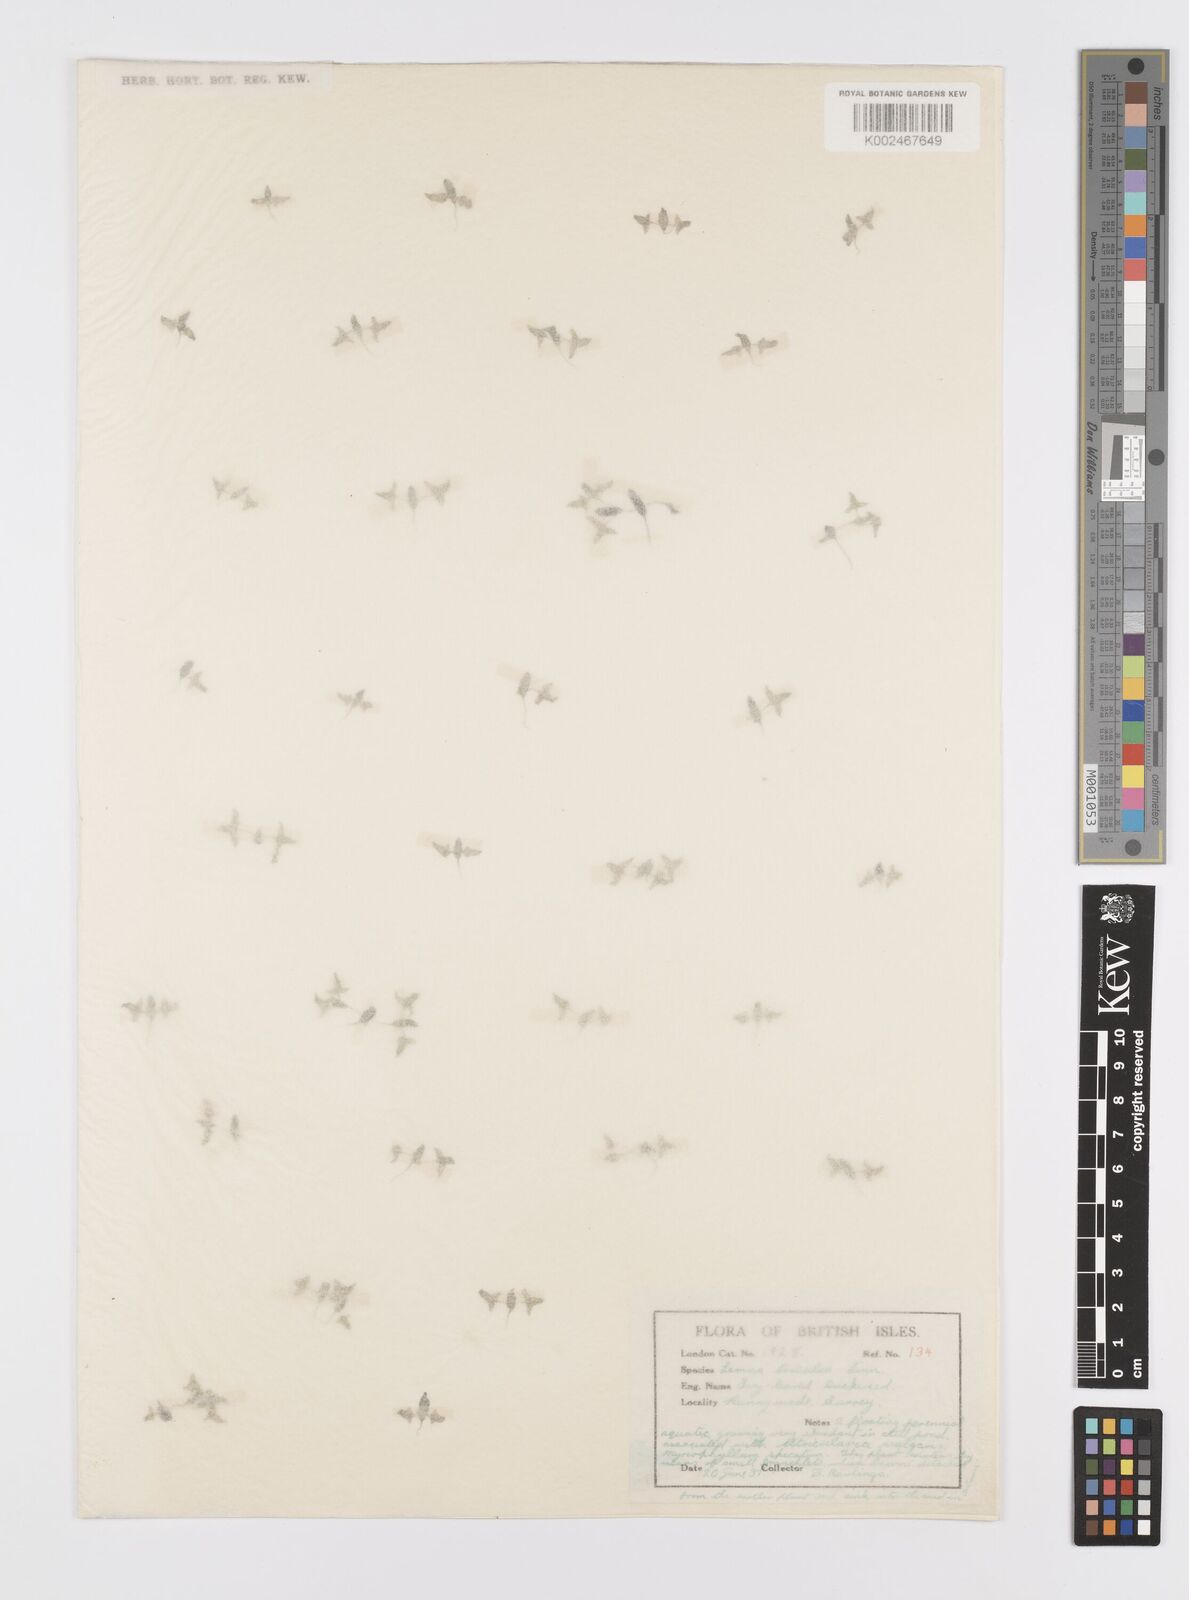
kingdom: Plantae
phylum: Tracheophyta
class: Liliopsida
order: Alismatales
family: Araceae
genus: Lemna
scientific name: Lemna trisulca
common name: Ivy-leaved duckweed
